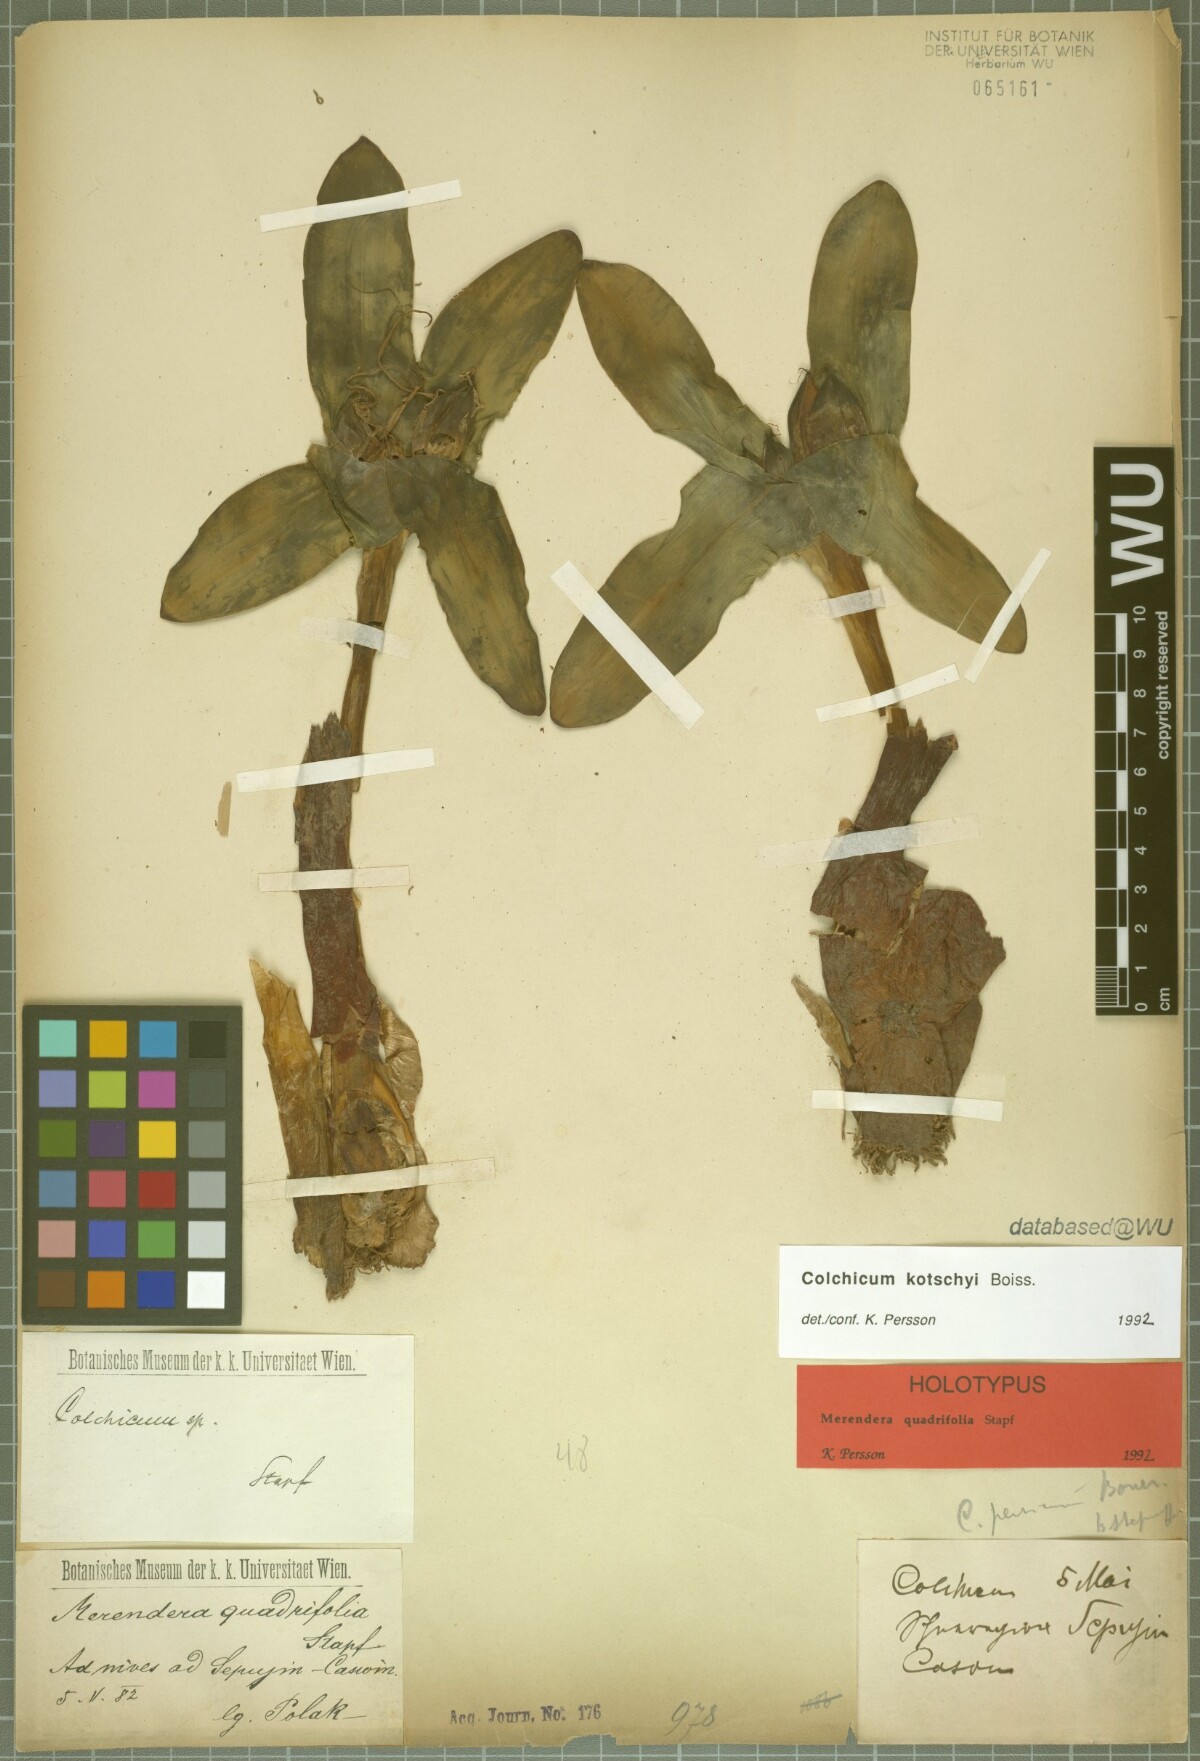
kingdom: Plantae
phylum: Tracheophyta
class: Liliopsida
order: Liliales
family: Colchicaceae
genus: Colchicum
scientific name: Colchicum kotschyi
